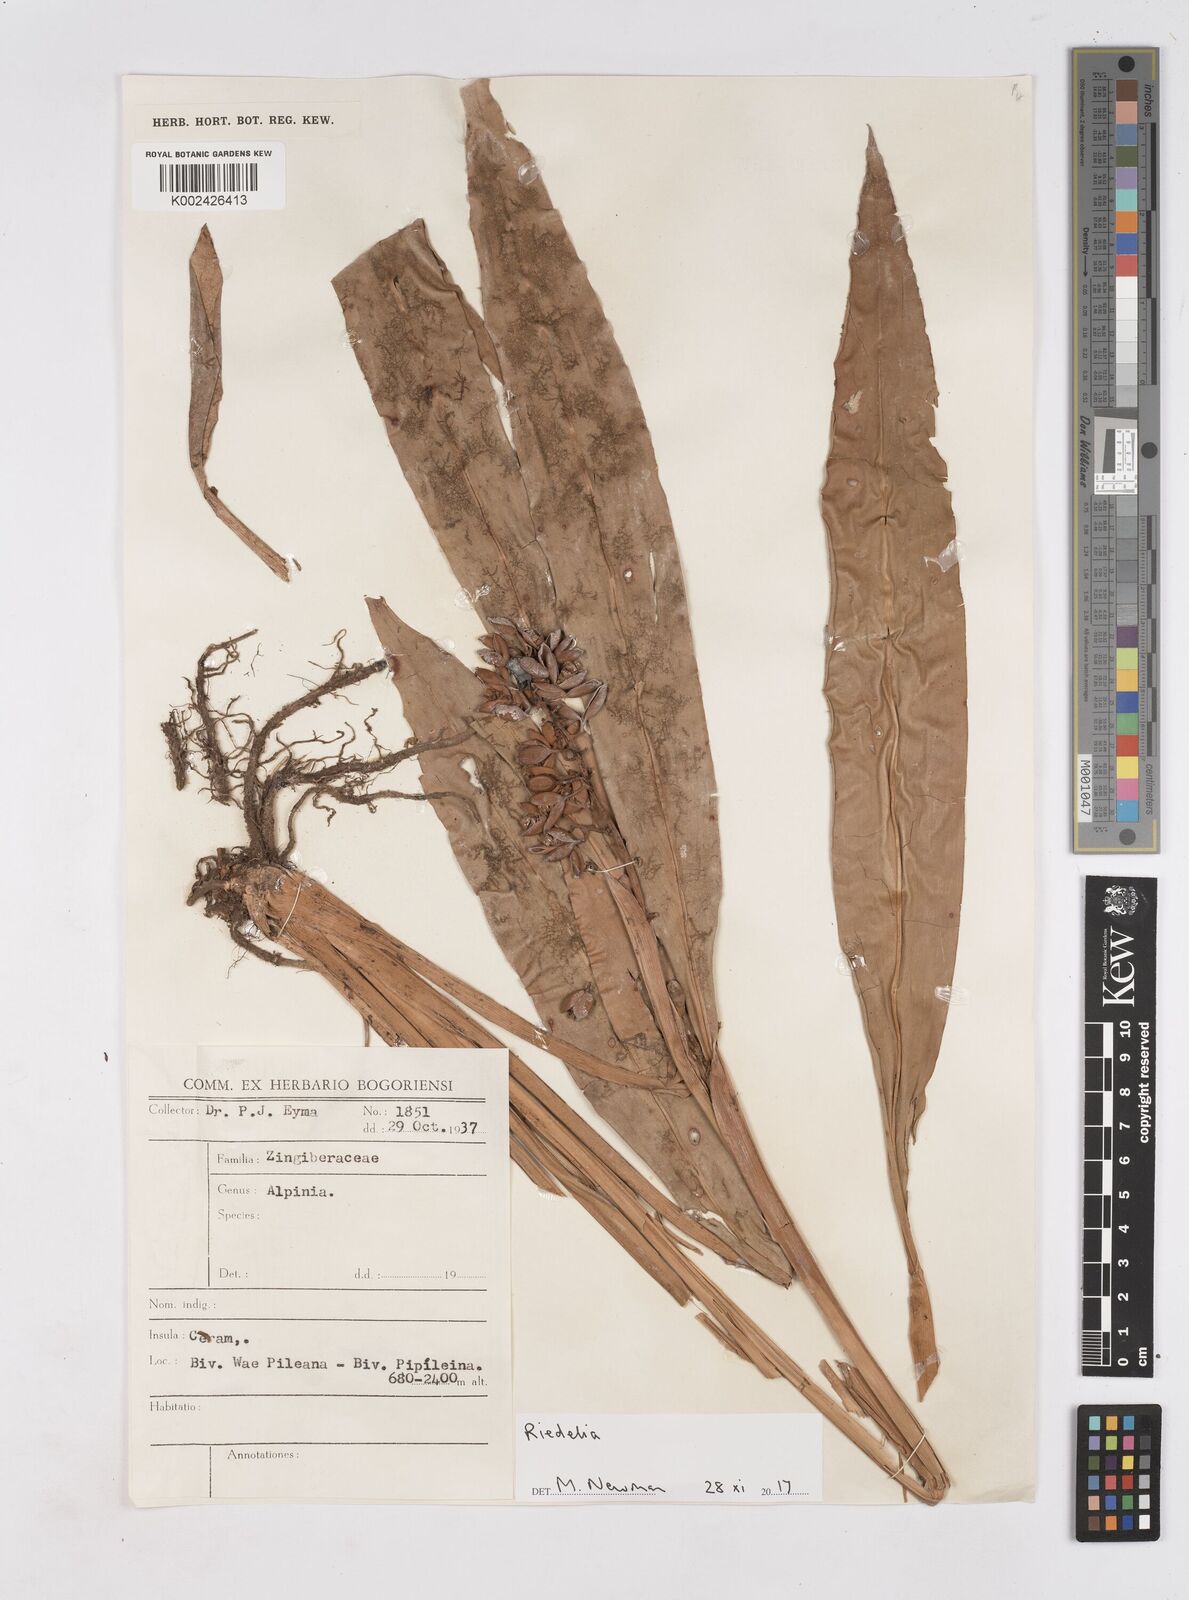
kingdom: Plantae
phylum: Tracheophyta
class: Liliopsida
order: Zingiberales
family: Zingiberaceae
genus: Riedelia
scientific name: Riedelia
